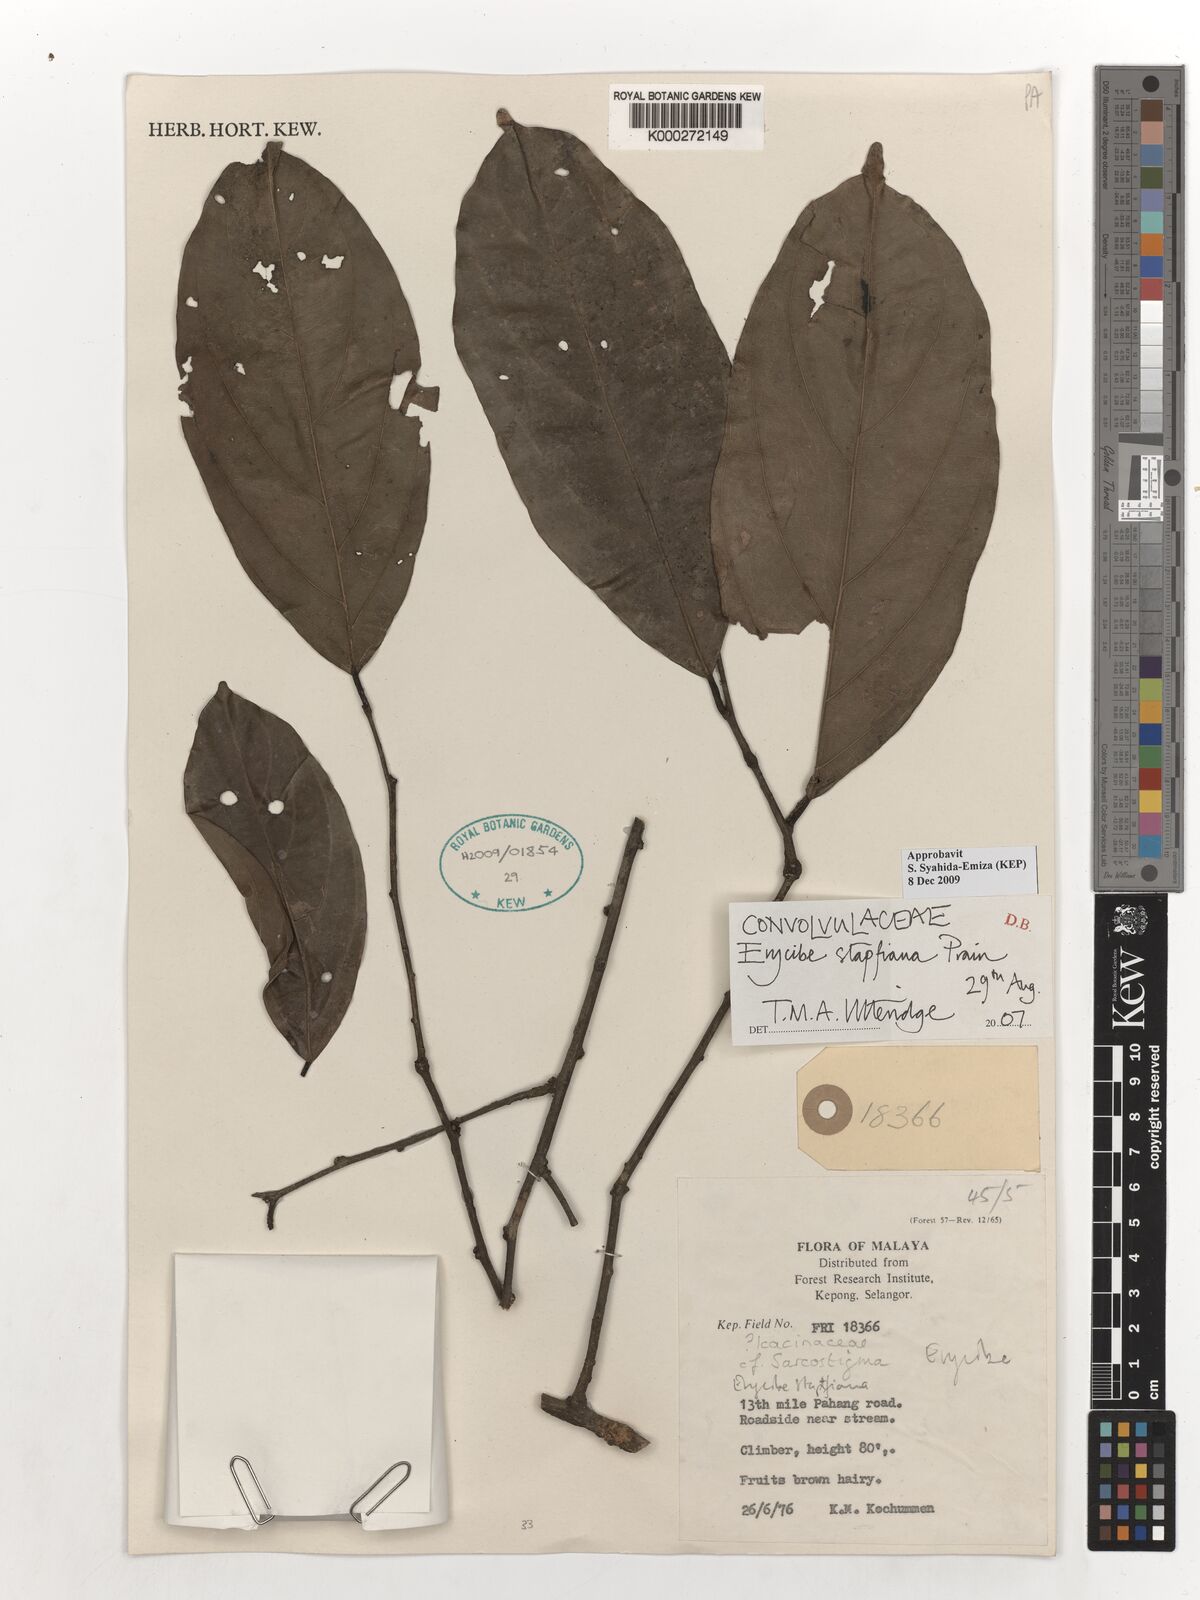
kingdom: Plantae
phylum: Tracheophyta
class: Magnoliopsida
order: Solanales
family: Convolvulaceae
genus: Erycibe
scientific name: Erycibe stapfiana
